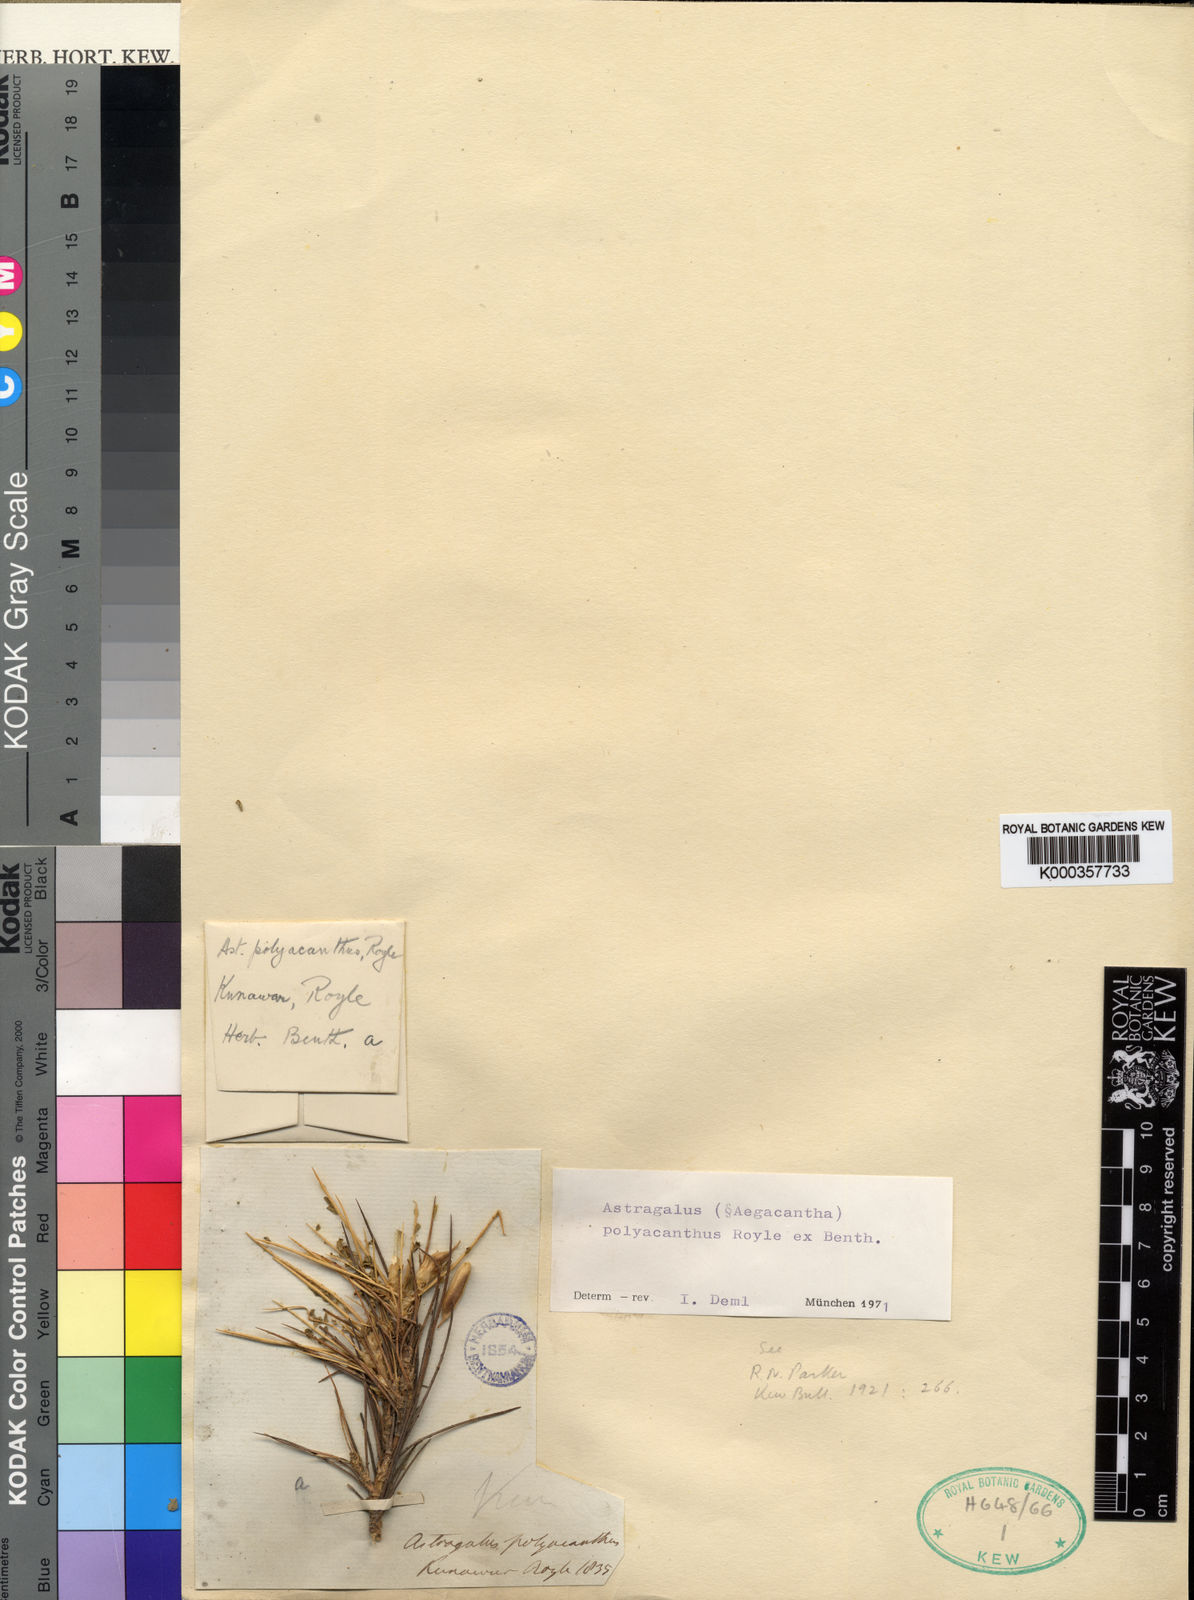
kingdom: Plantae
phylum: Tracheophyta
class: Magnoliopsida
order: Fabales
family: Fabaceae
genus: Astragalus
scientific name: Astragalus
